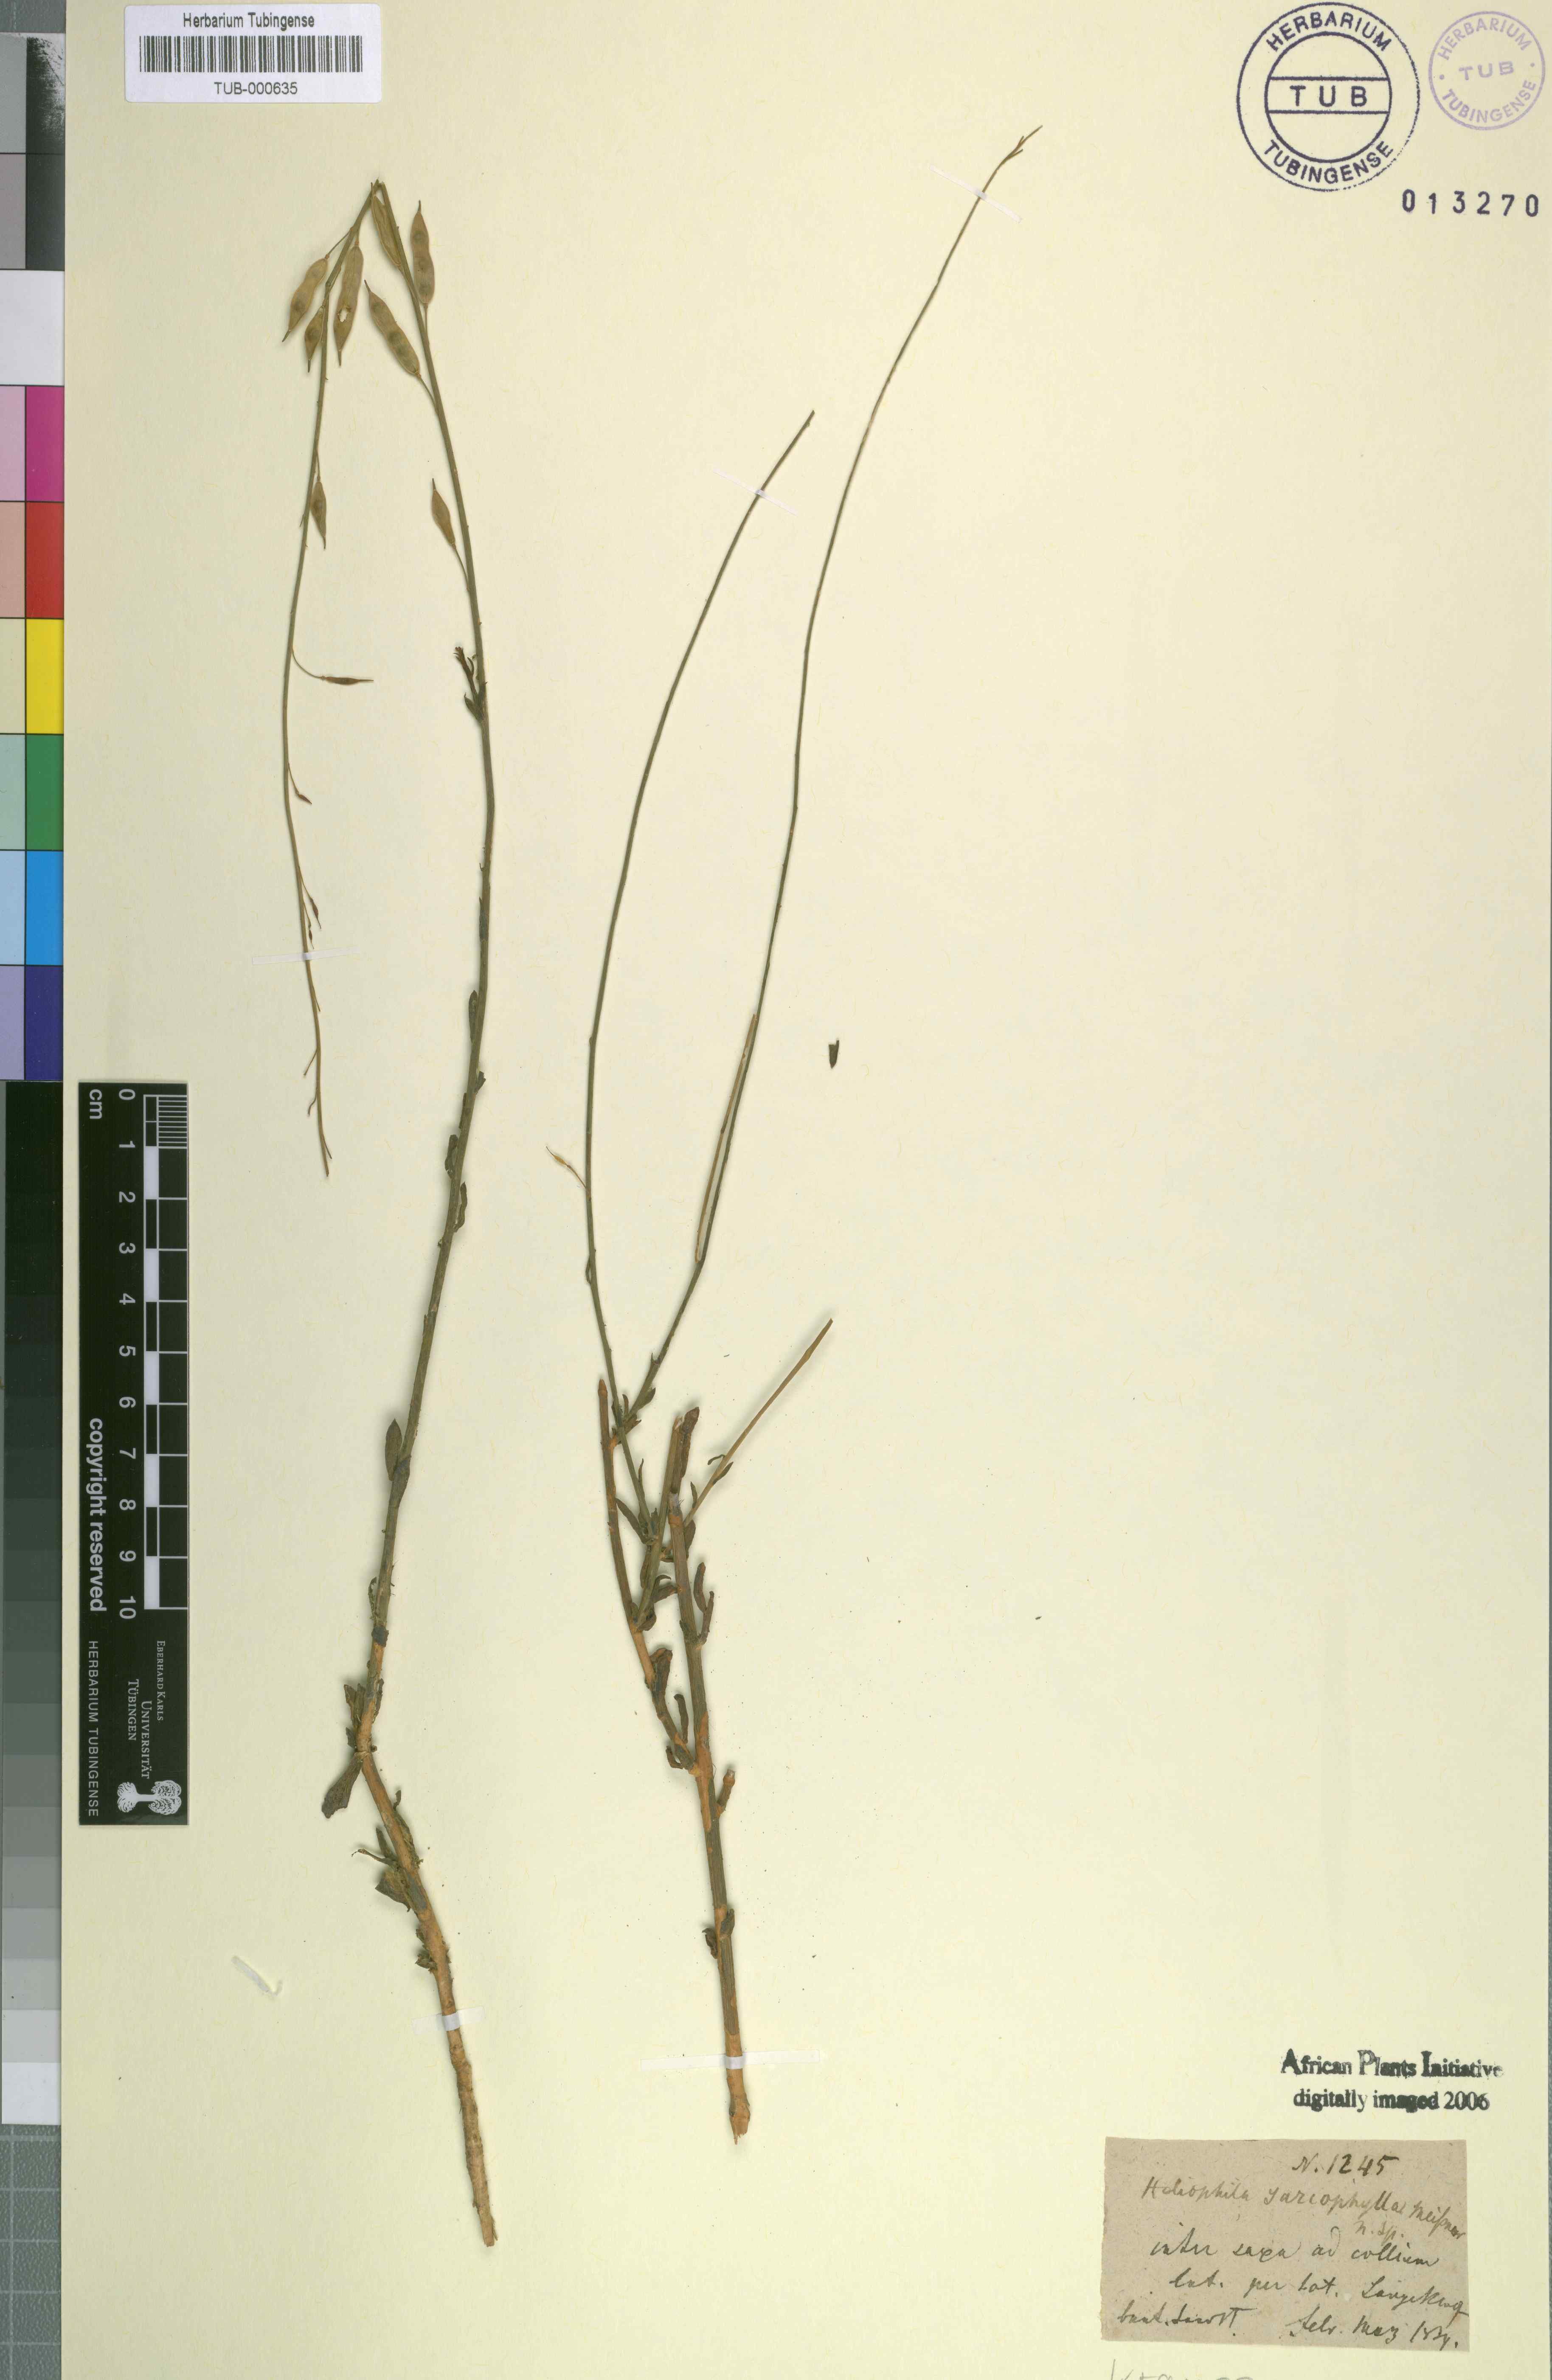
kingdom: Plantae
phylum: Tracheophyta
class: Magnoliopsida
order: Brassicales
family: Brassicaceae
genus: Heliophila
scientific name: Heliophila glauca
